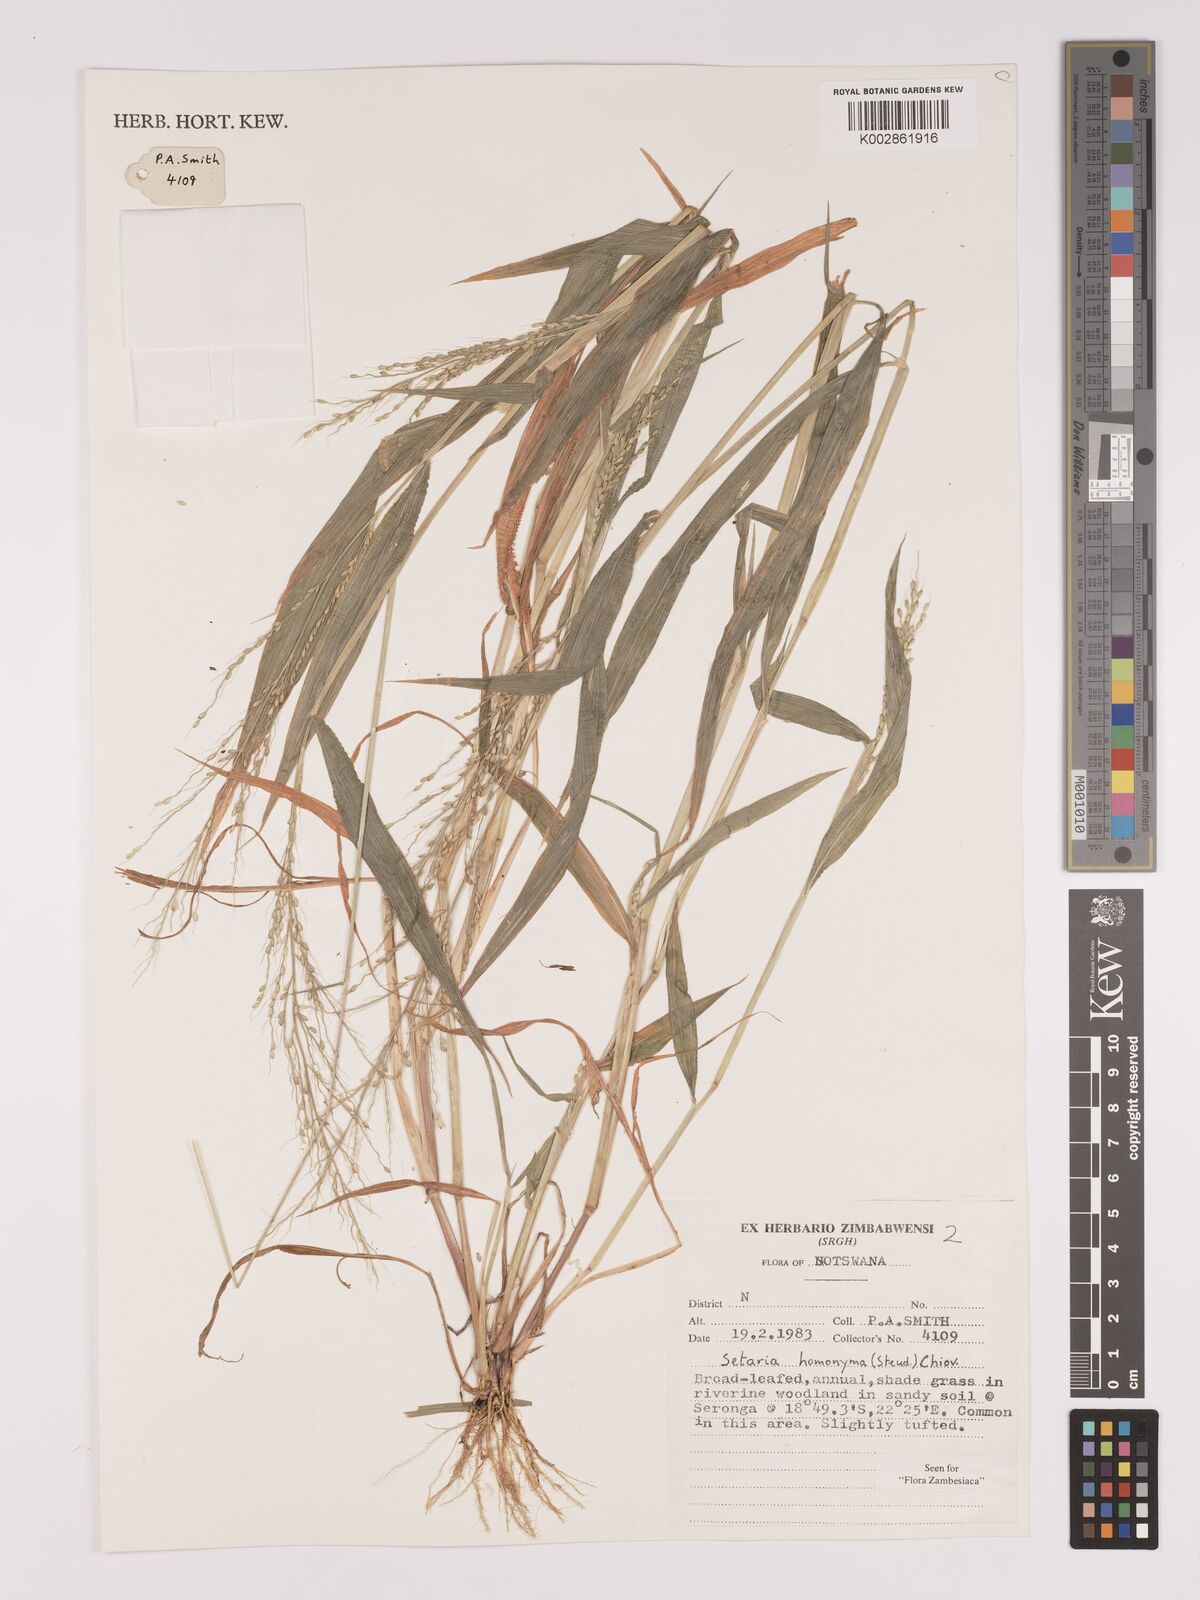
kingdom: Plantae
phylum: Tracheophyta
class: Liliopsida
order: Poales
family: Poaceae
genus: Setaria
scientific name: Setaria homonyma
